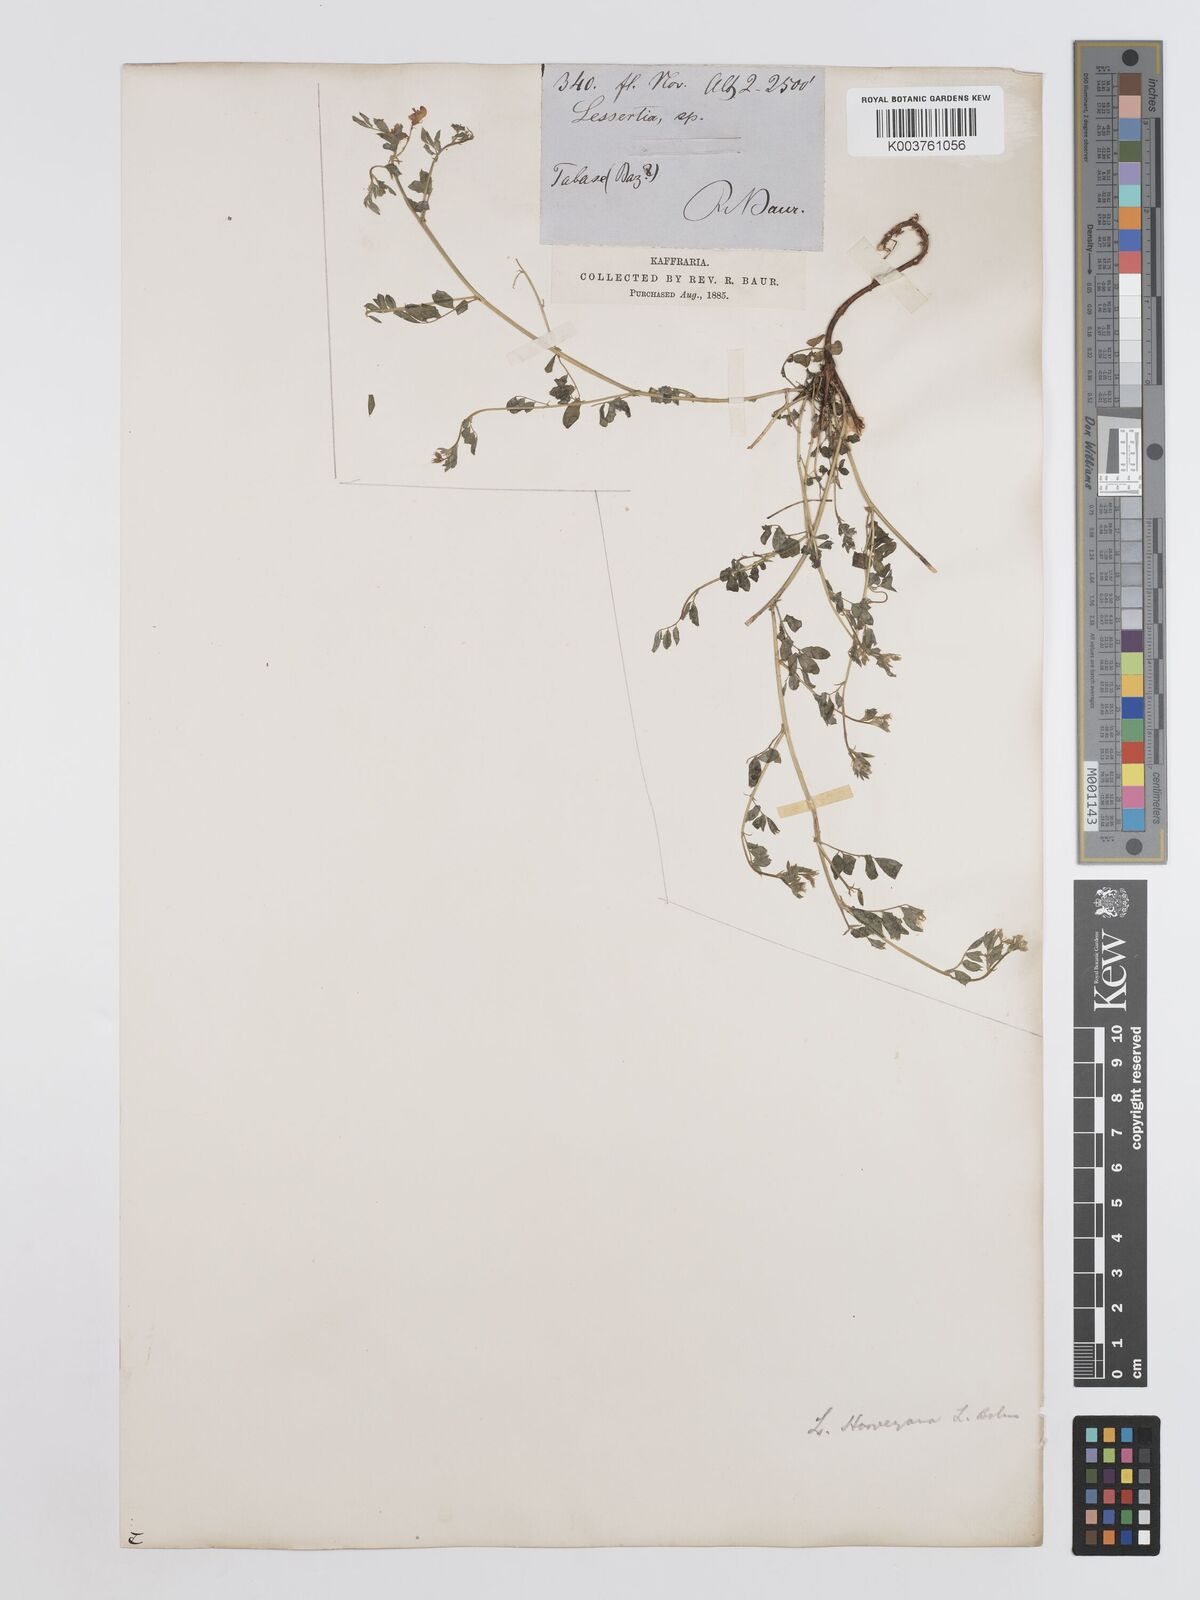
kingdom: Plantae
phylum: Tracheophyta
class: Magnoliopsida
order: Fabales
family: Fabaceae
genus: Lessertia
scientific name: Lessertia harveyana
